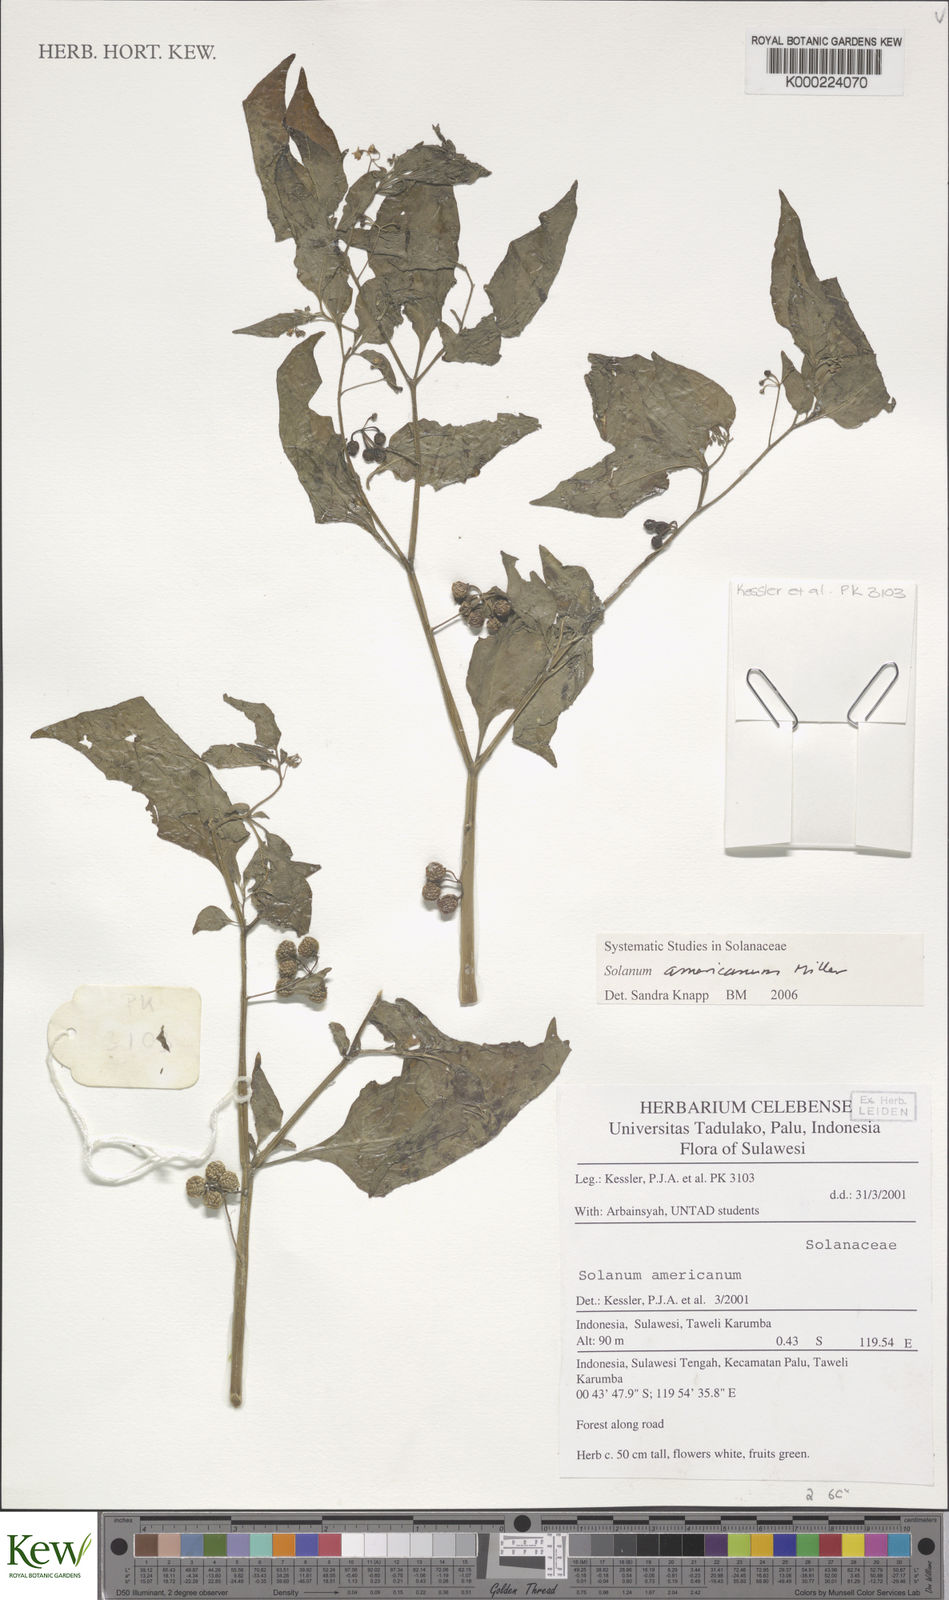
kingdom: Plantae
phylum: Tracheophyta
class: Magnoliopsida
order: Solanales
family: Solanaceae
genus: Solanum
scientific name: Solanum americanum
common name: American black nightshade
